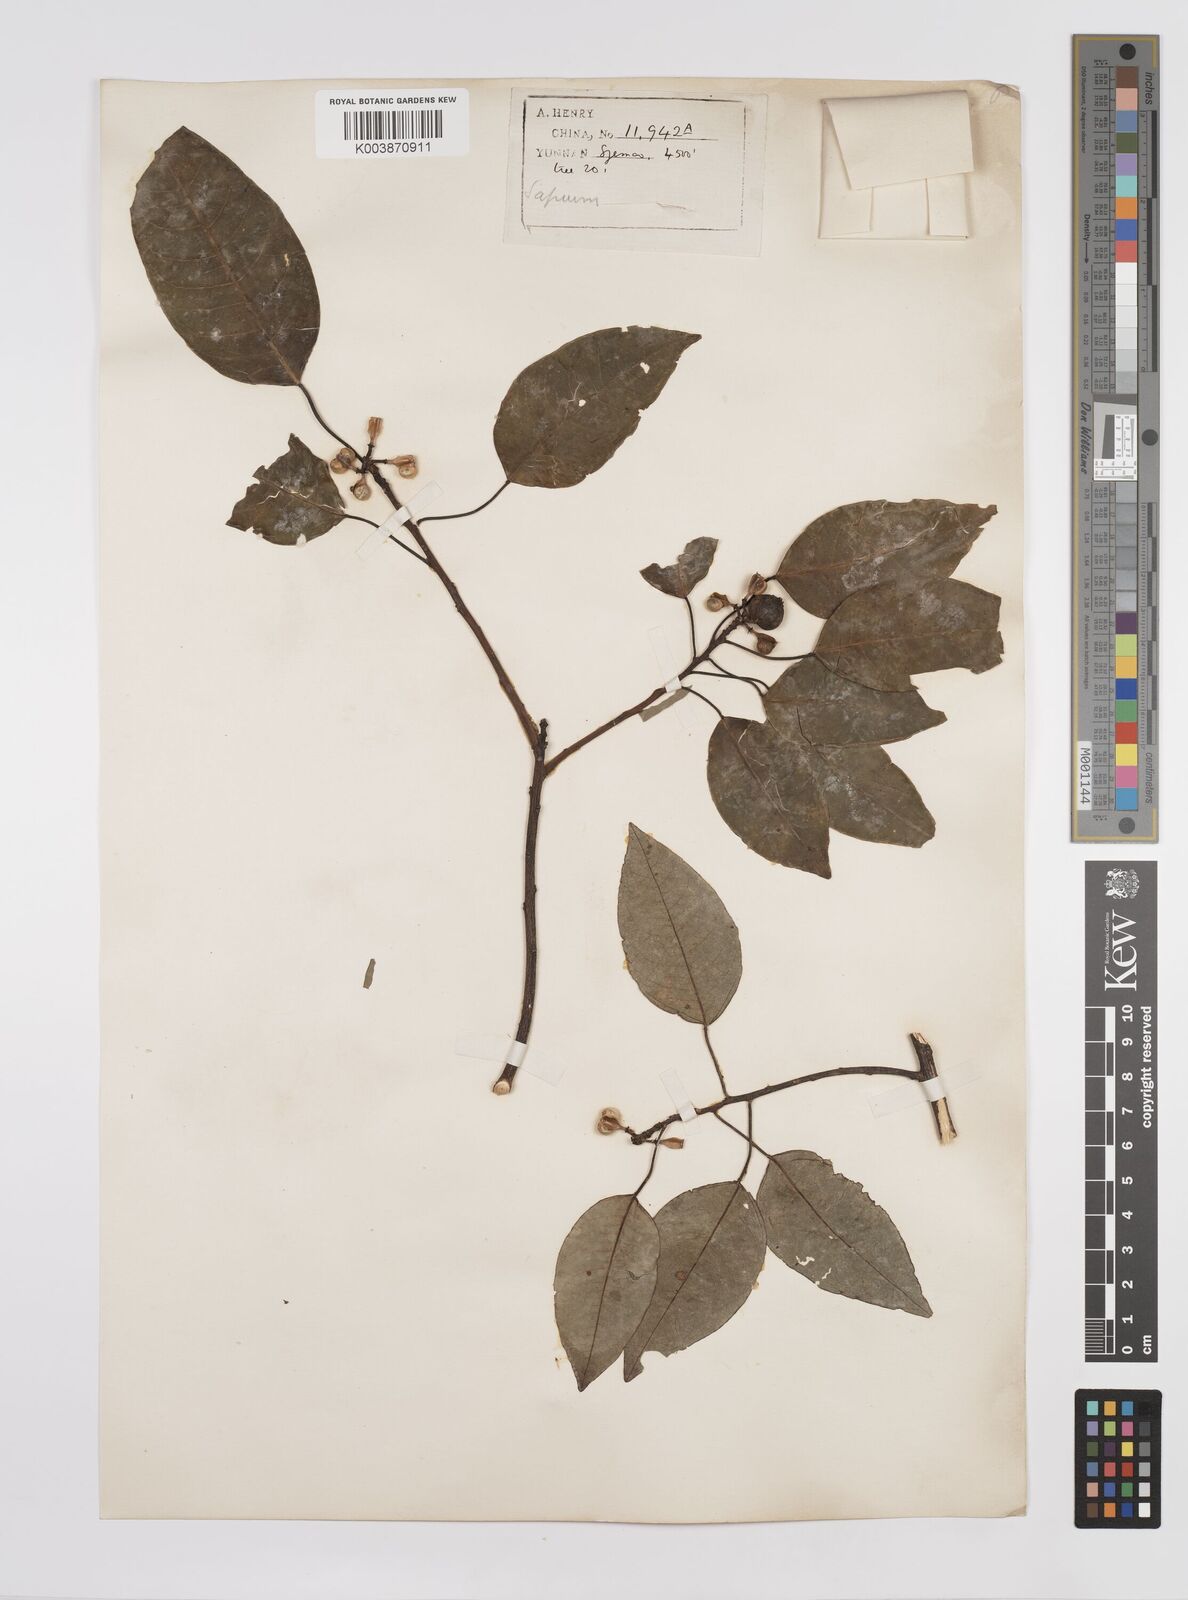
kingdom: Plantae
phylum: Tracheophyta
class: Magnoliopsida
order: Malpighiales
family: Euphorbiaceae
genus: Triadica
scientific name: Triadica cochinchinensis
